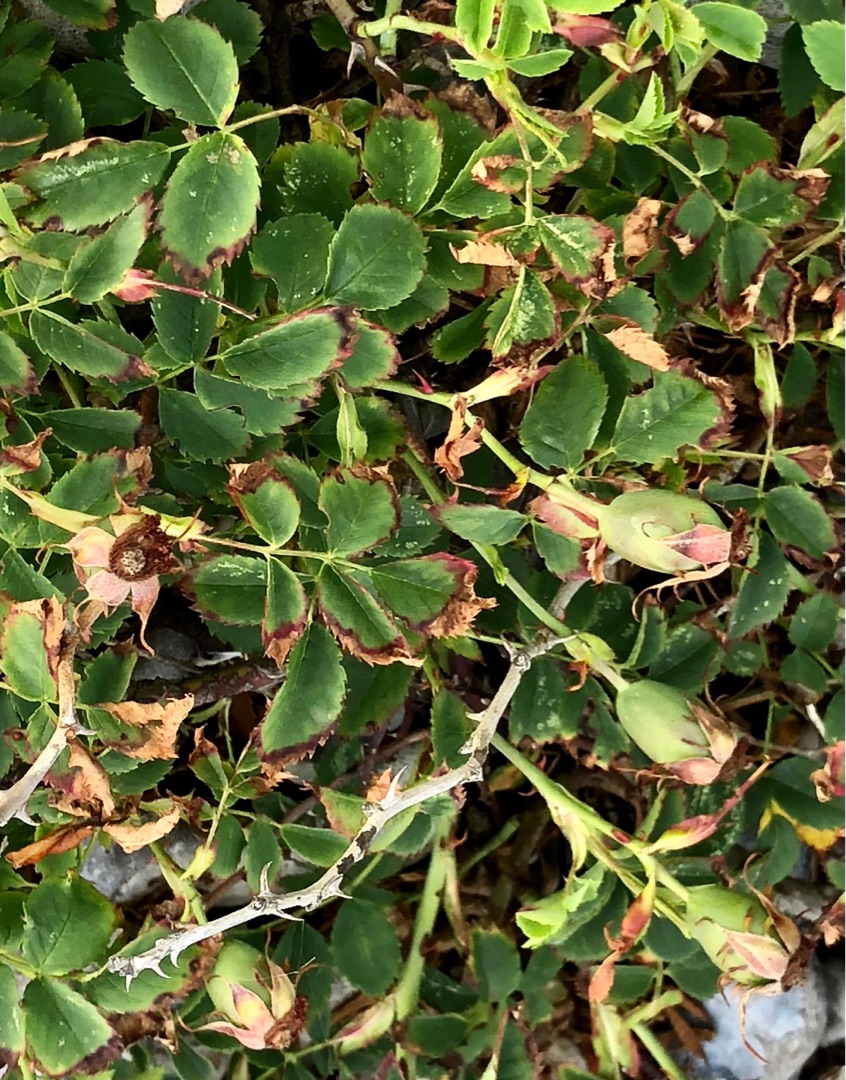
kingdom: Plantae
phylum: Tracheophyta
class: Magnoliopsida
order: Rosales
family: Rosaceae
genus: Rosa
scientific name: Rosa canina
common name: Hunde-rose
